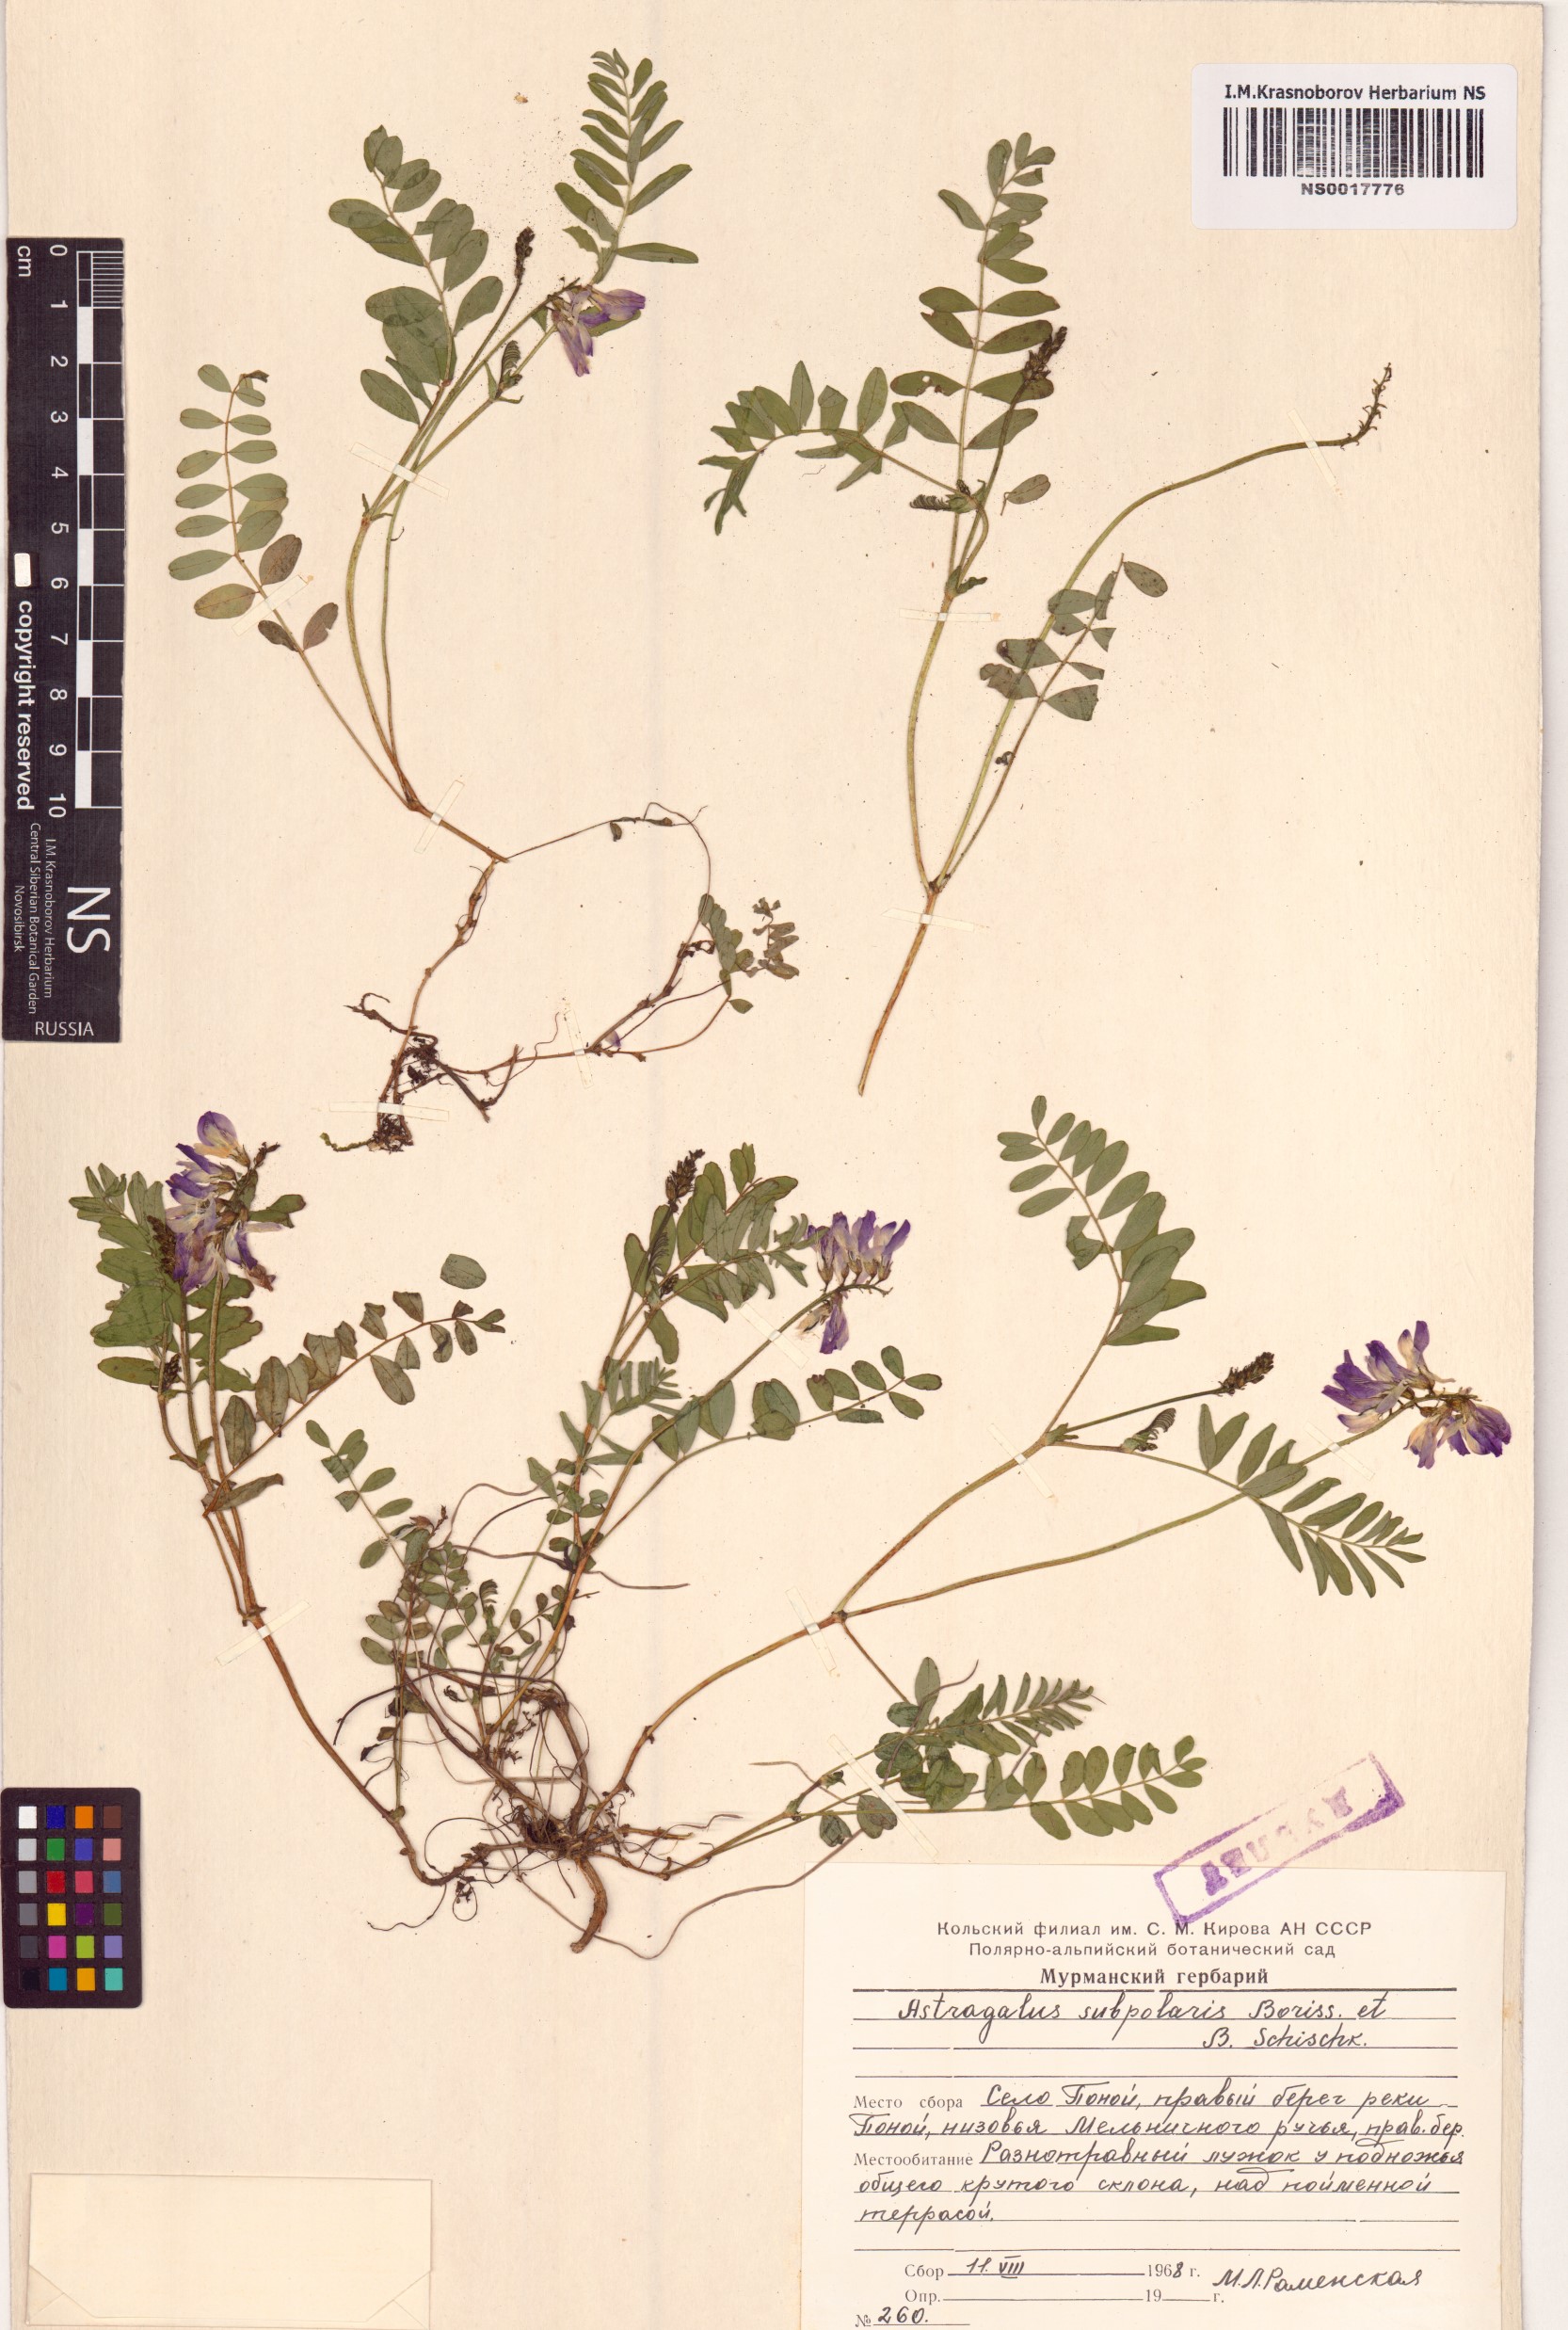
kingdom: Plantae
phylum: Tracheophyta
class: Magnoliopsida
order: Fabales
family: Fabaceae
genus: Astragalus
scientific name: Astragalus norvegicus
